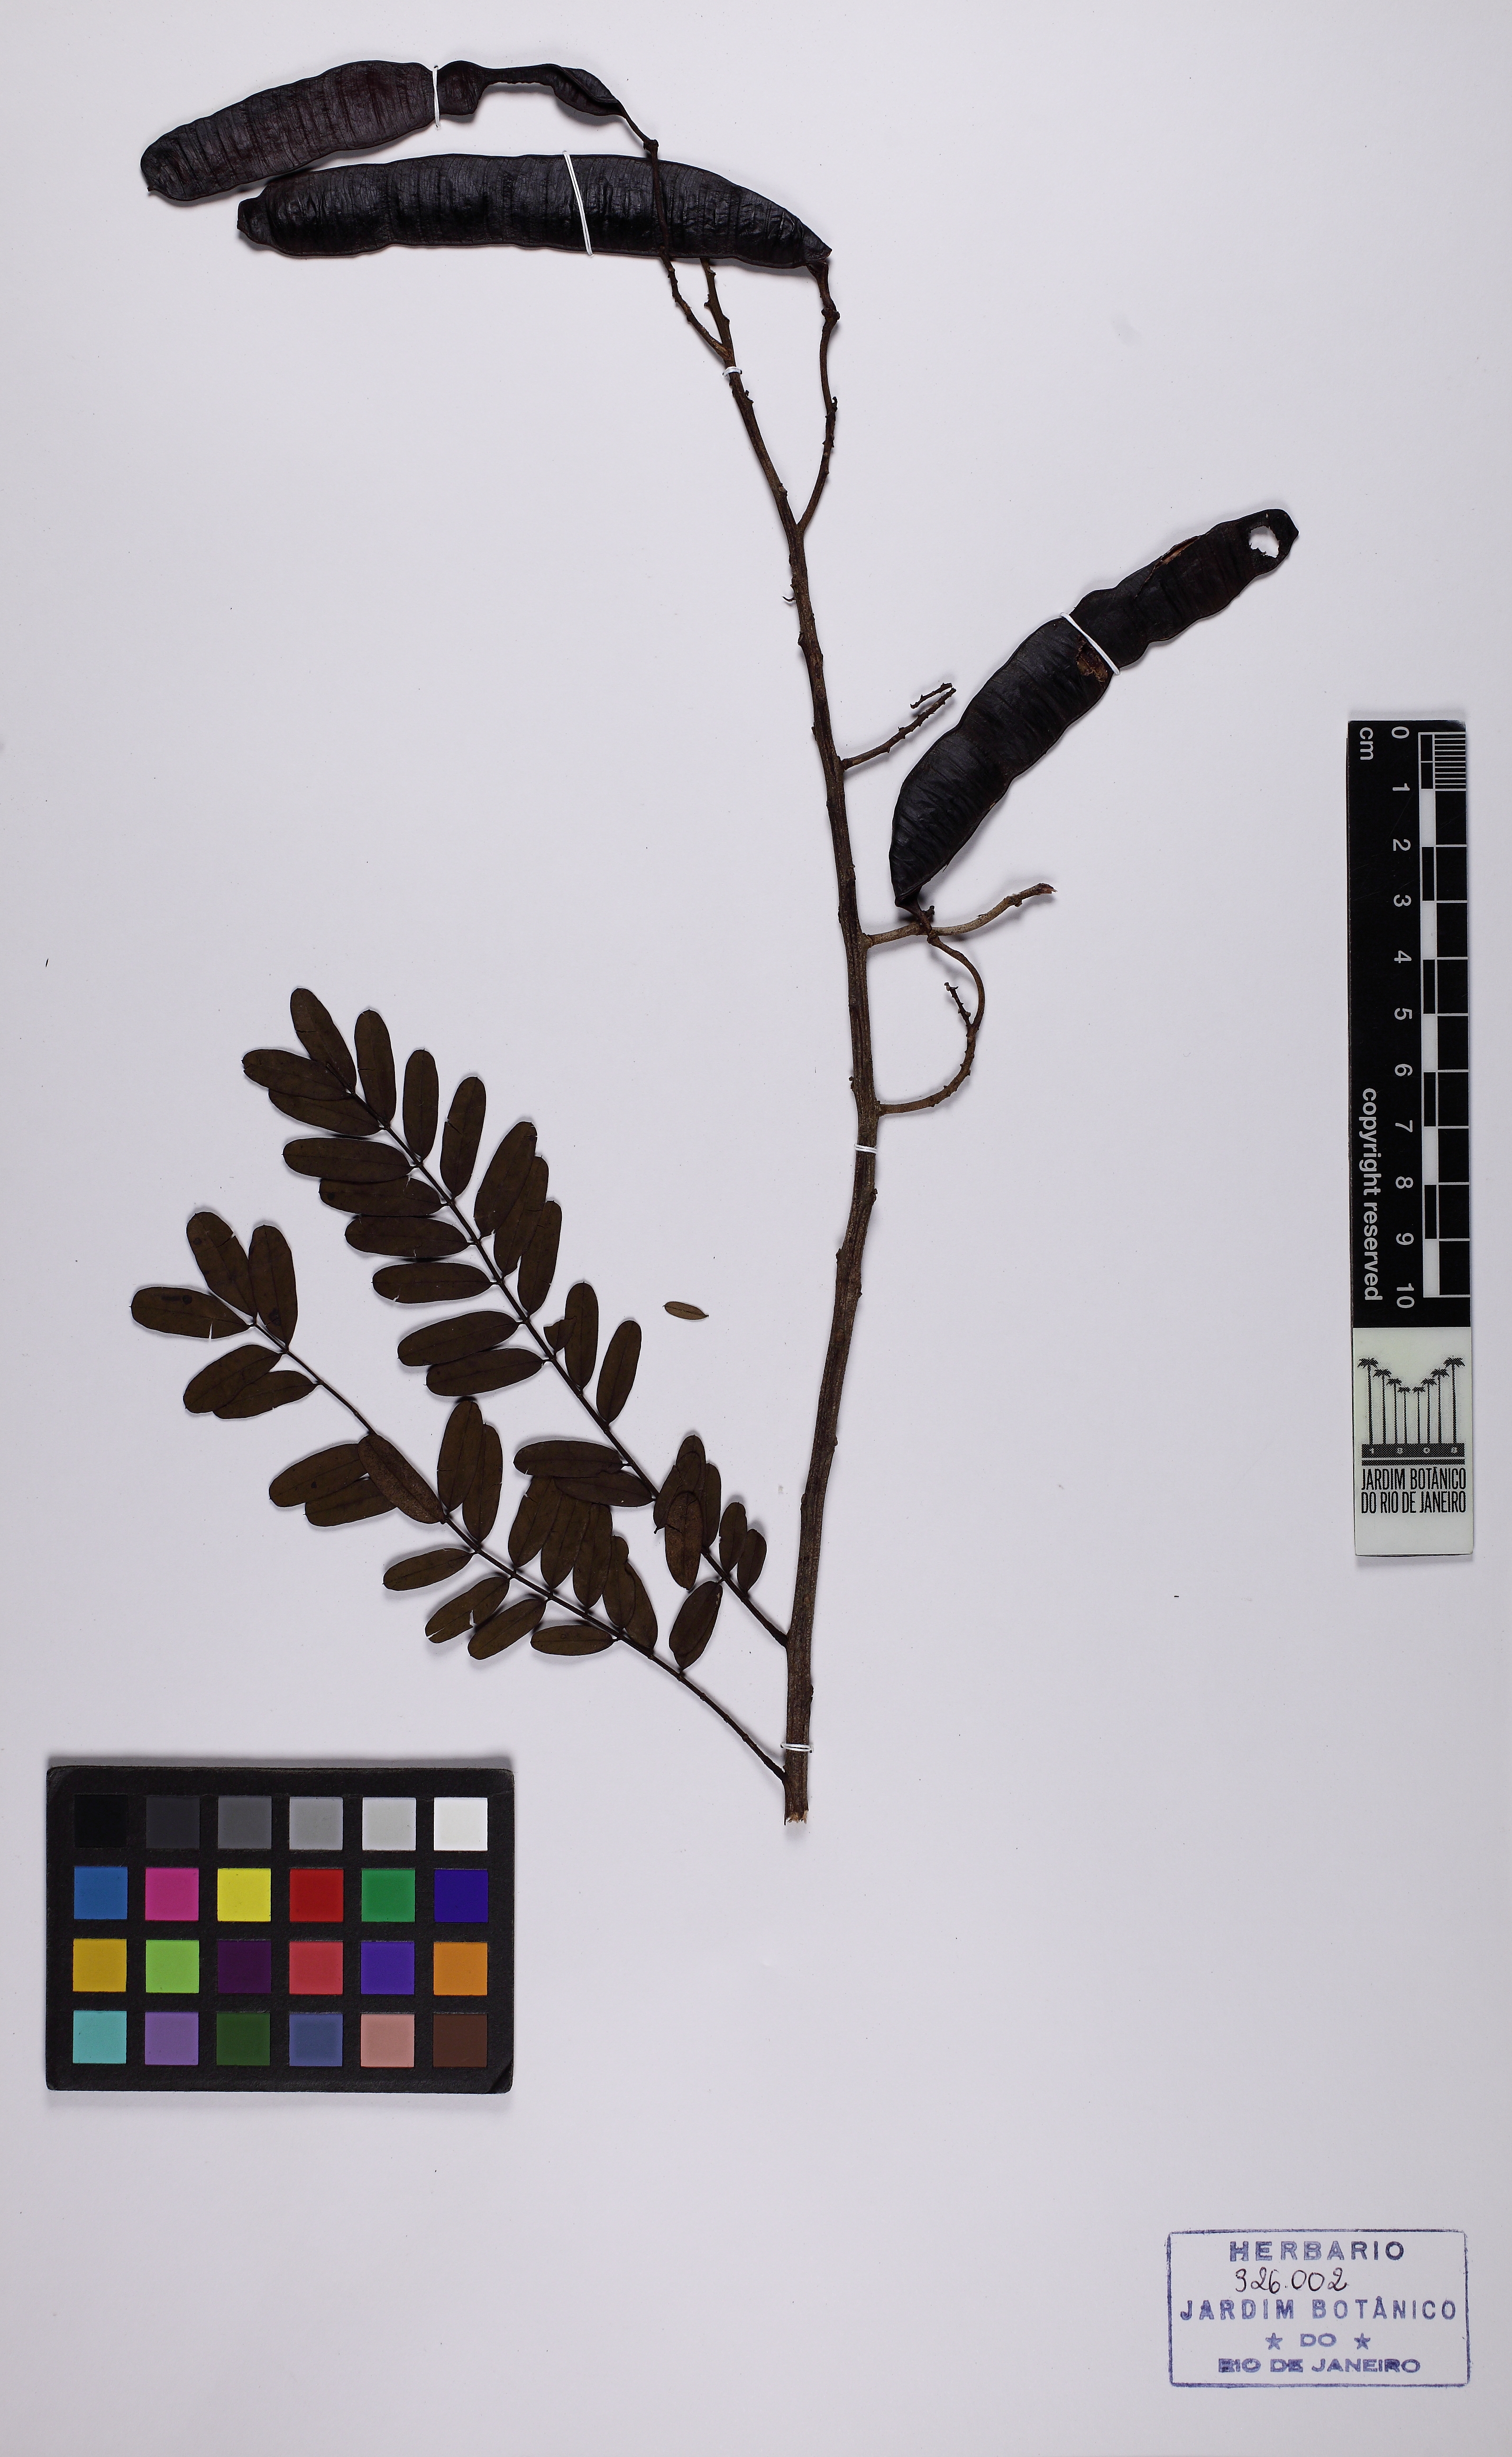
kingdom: Plantae
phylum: Tracheophyta
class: Magnoliopsida
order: Fabales
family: Fabaceae
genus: Senna
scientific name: Senna multijuga
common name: False sicklepod
